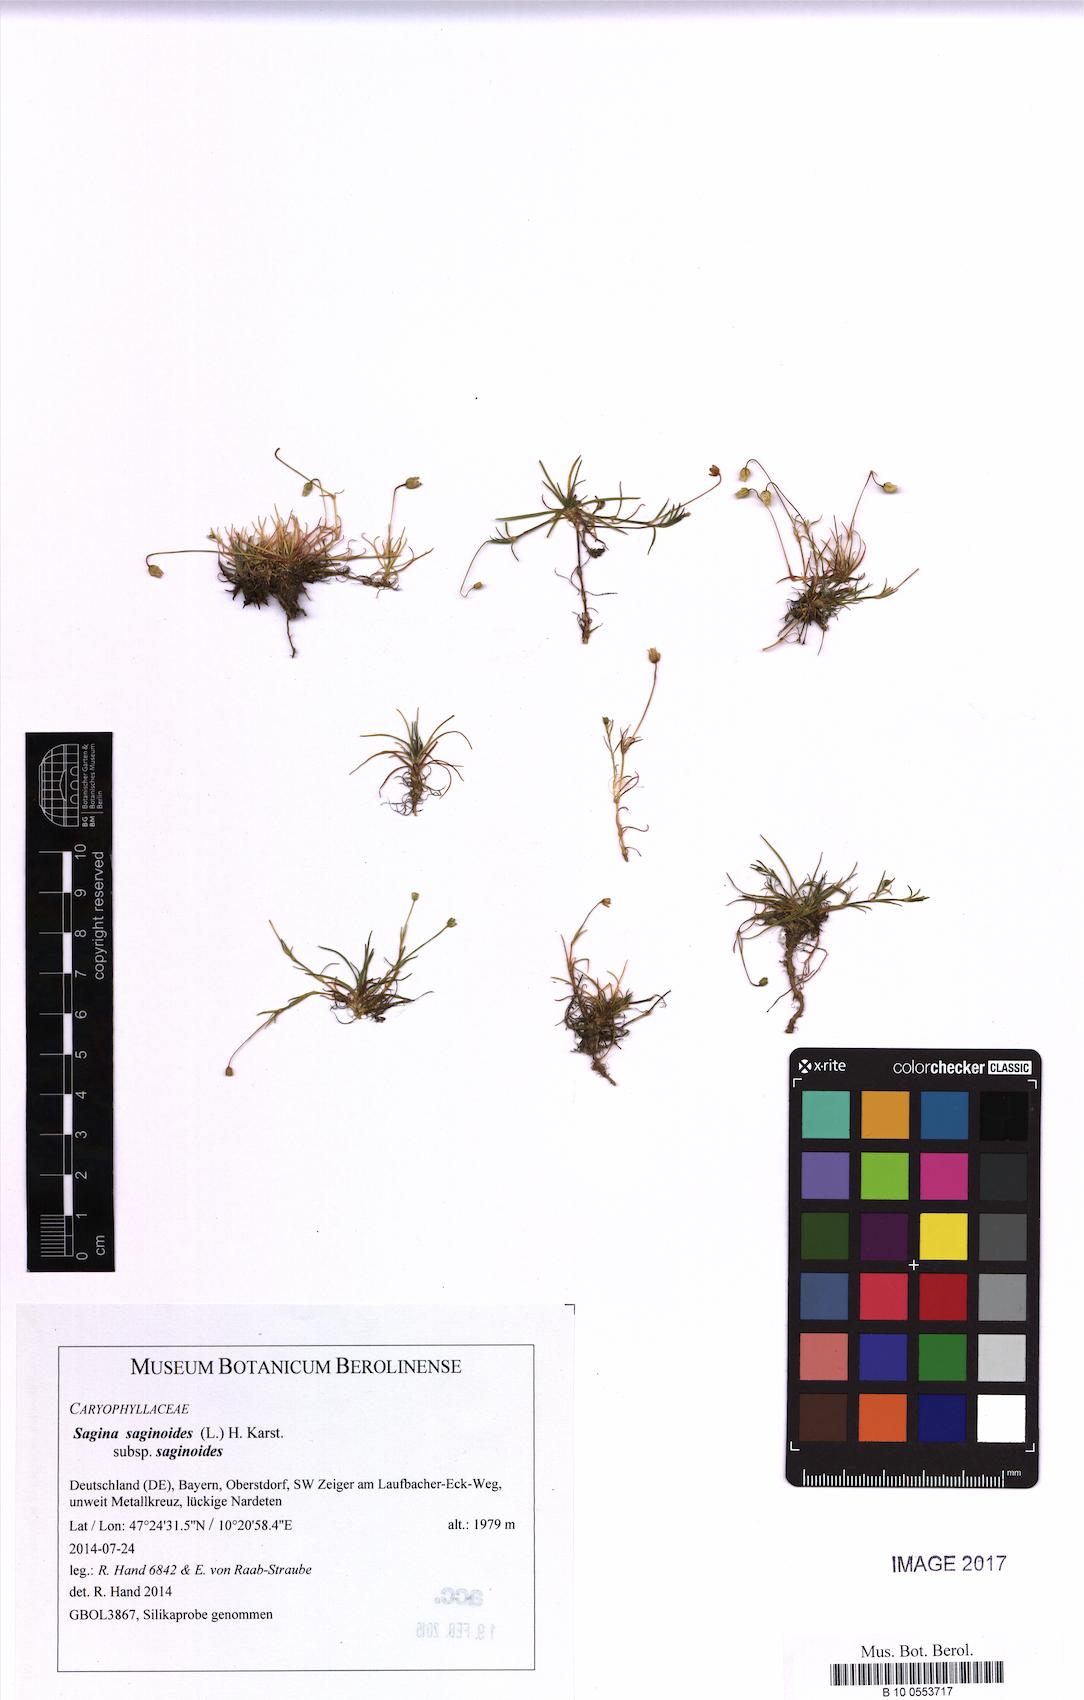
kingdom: Plantae
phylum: Tracheophyta
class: Magnoliopsida
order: Caryophyllales
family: Caryophyllaceae
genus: Sagina
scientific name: Sagina saginoides
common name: Alpine pearlwort
